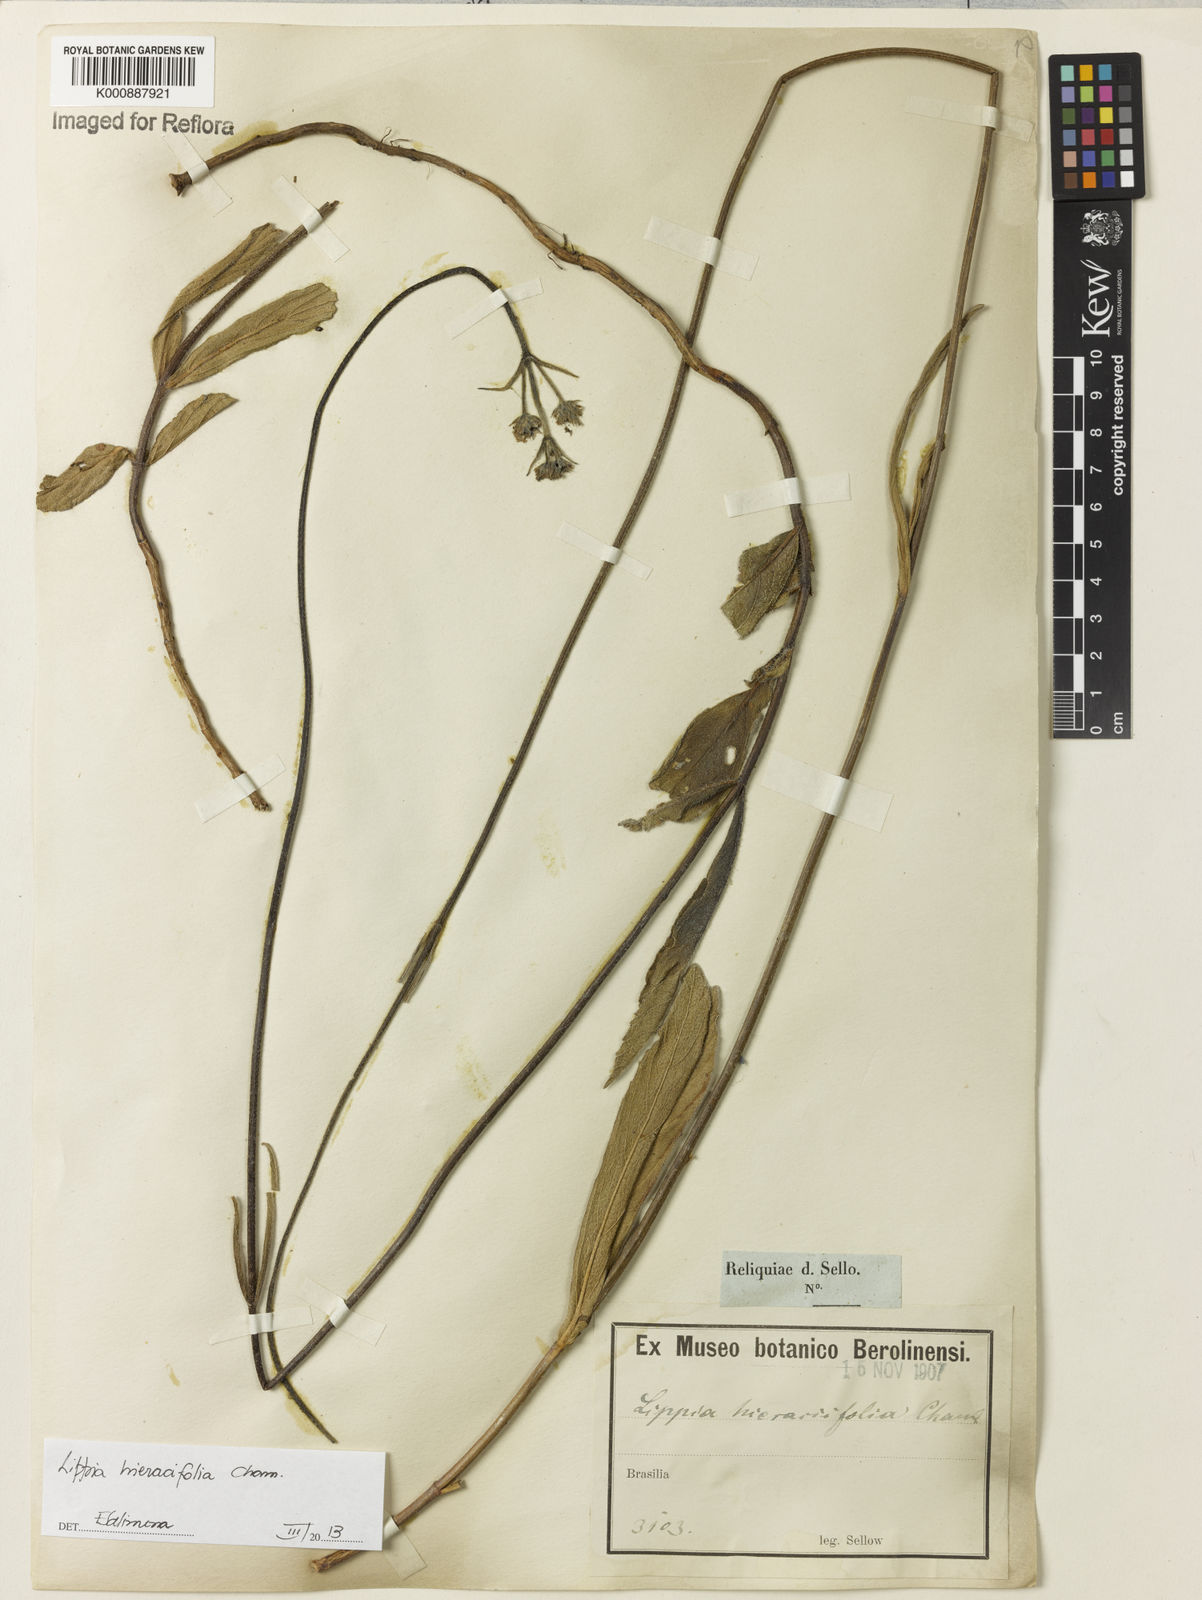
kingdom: Plantae
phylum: Tracheophyta
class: Magnoliopsida
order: Lamiales
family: Verbenaceae
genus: Lippia
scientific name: Lippia hieraciifolia
